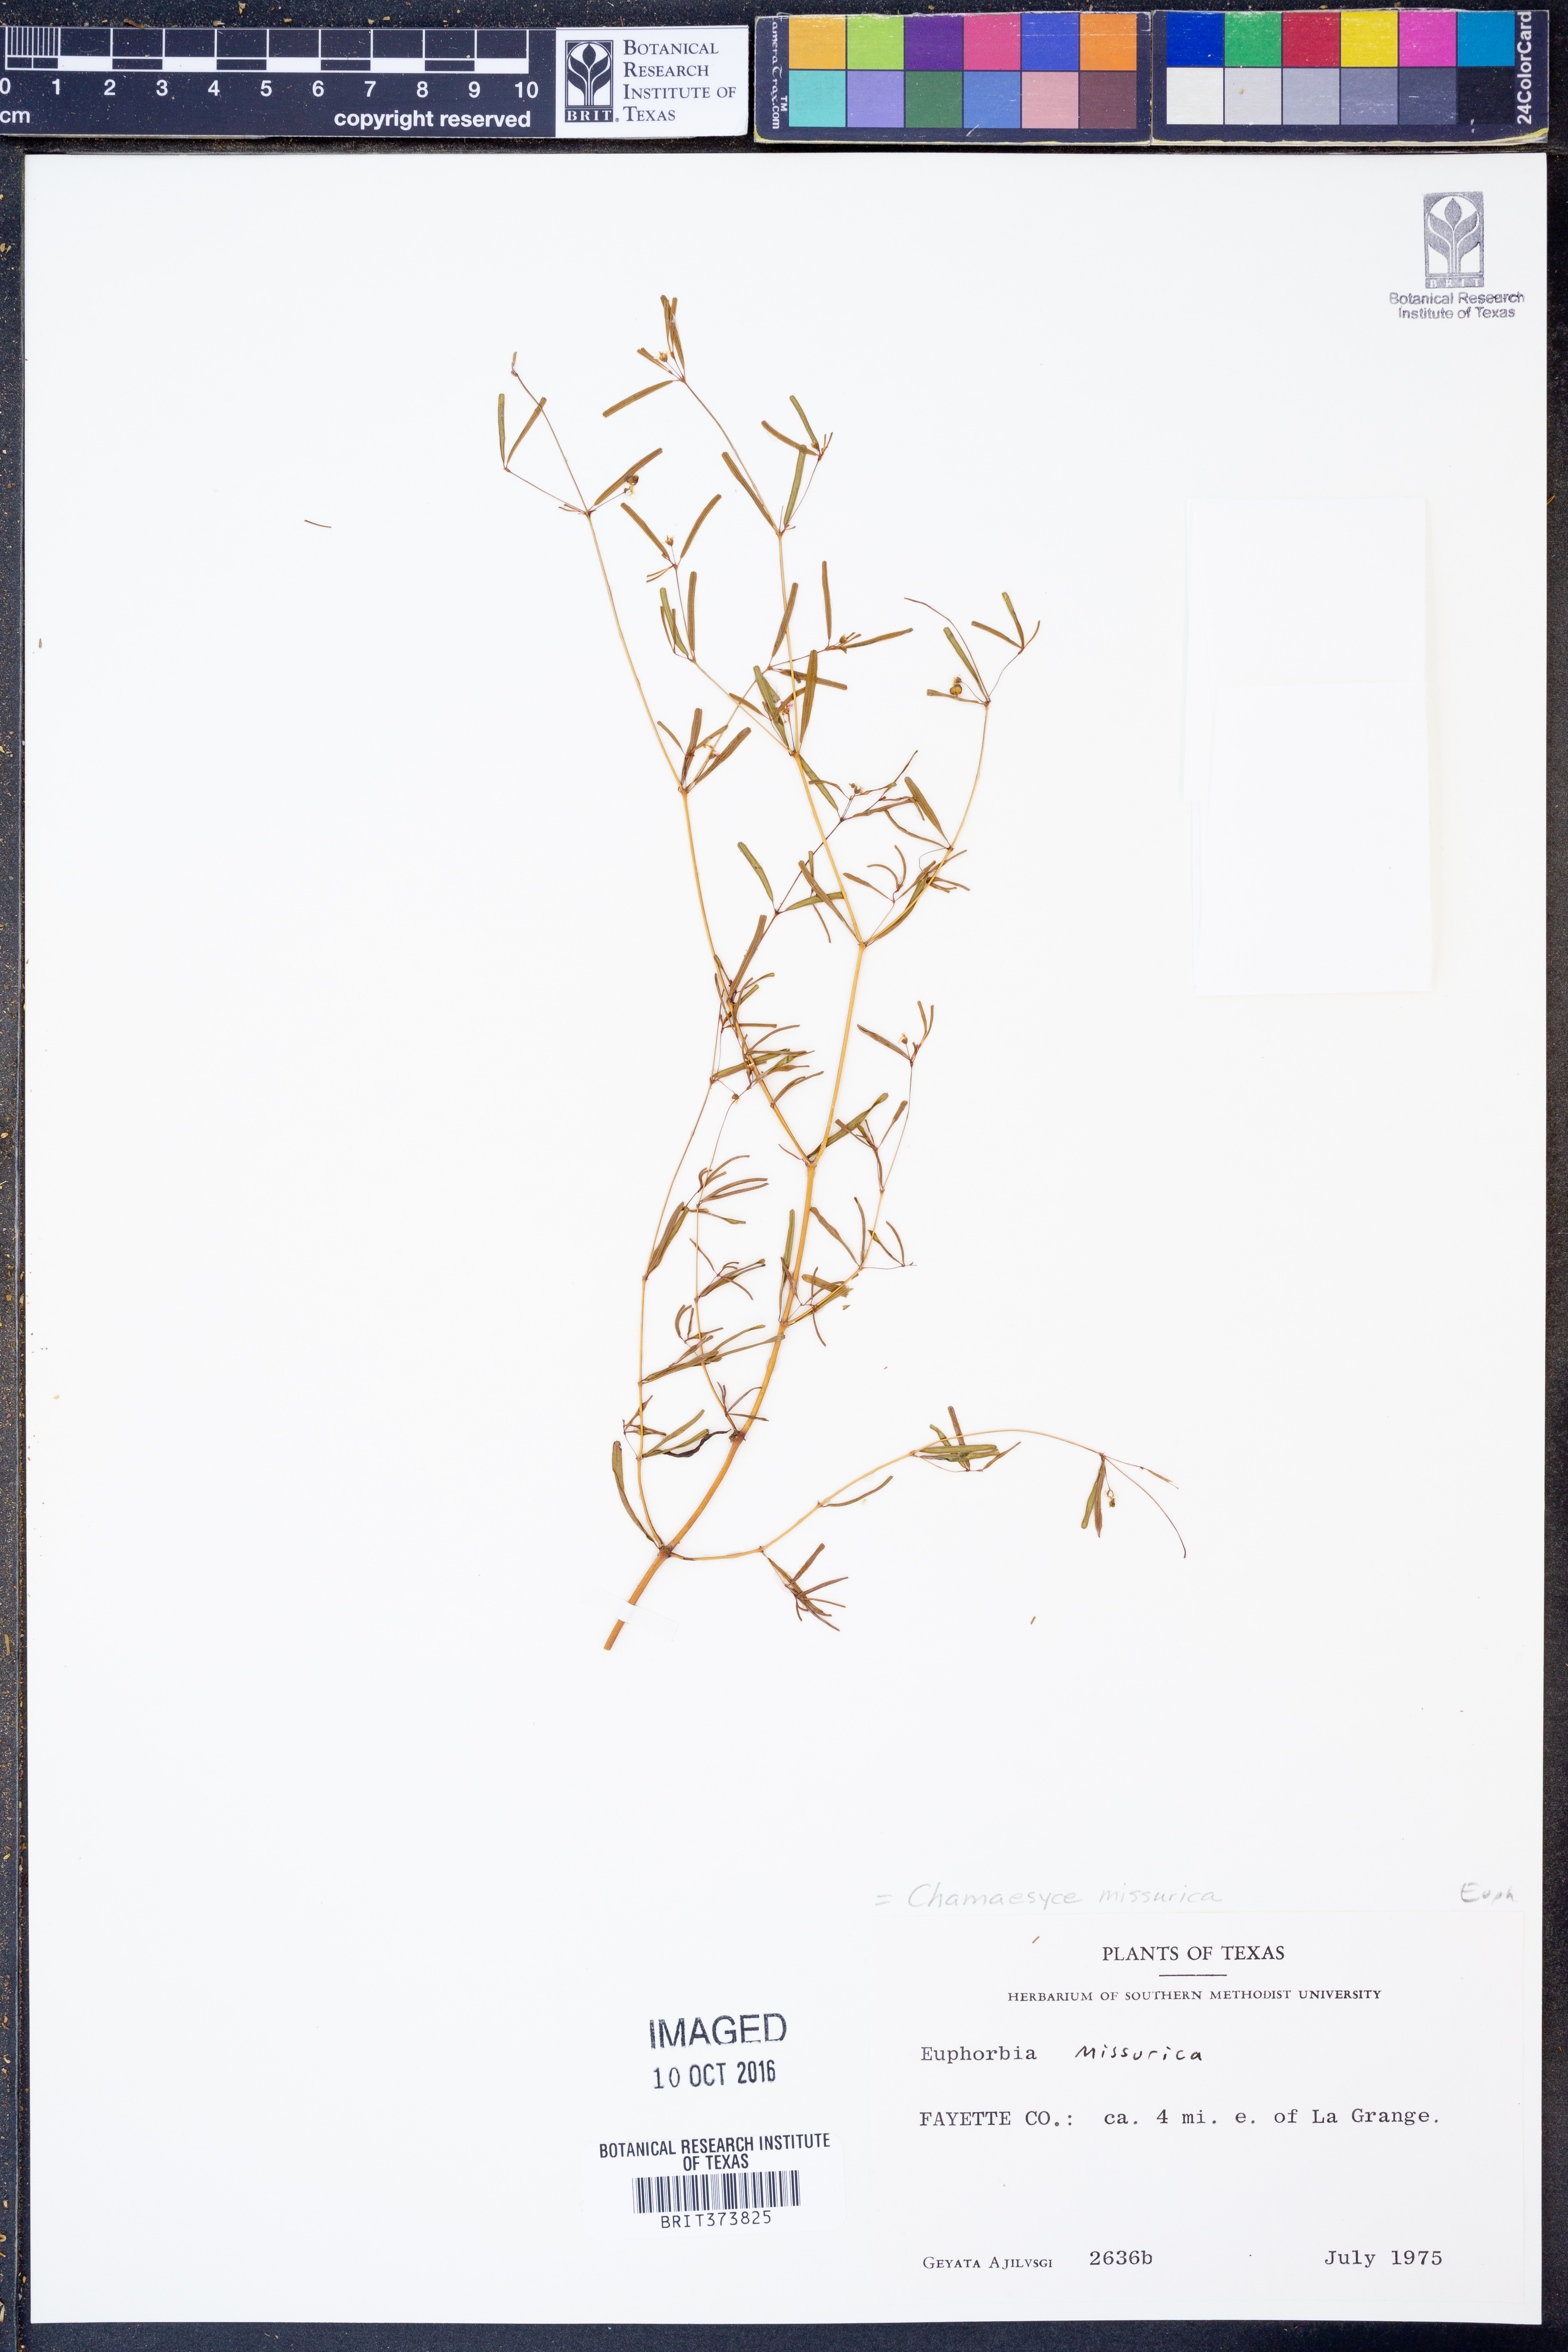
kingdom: Plantae
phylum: Tracheophyta
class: Magnoliopsida
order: Malpighiales
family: Euphorbiaceae
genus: Euphorbia
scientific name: Euphorbia missurica
